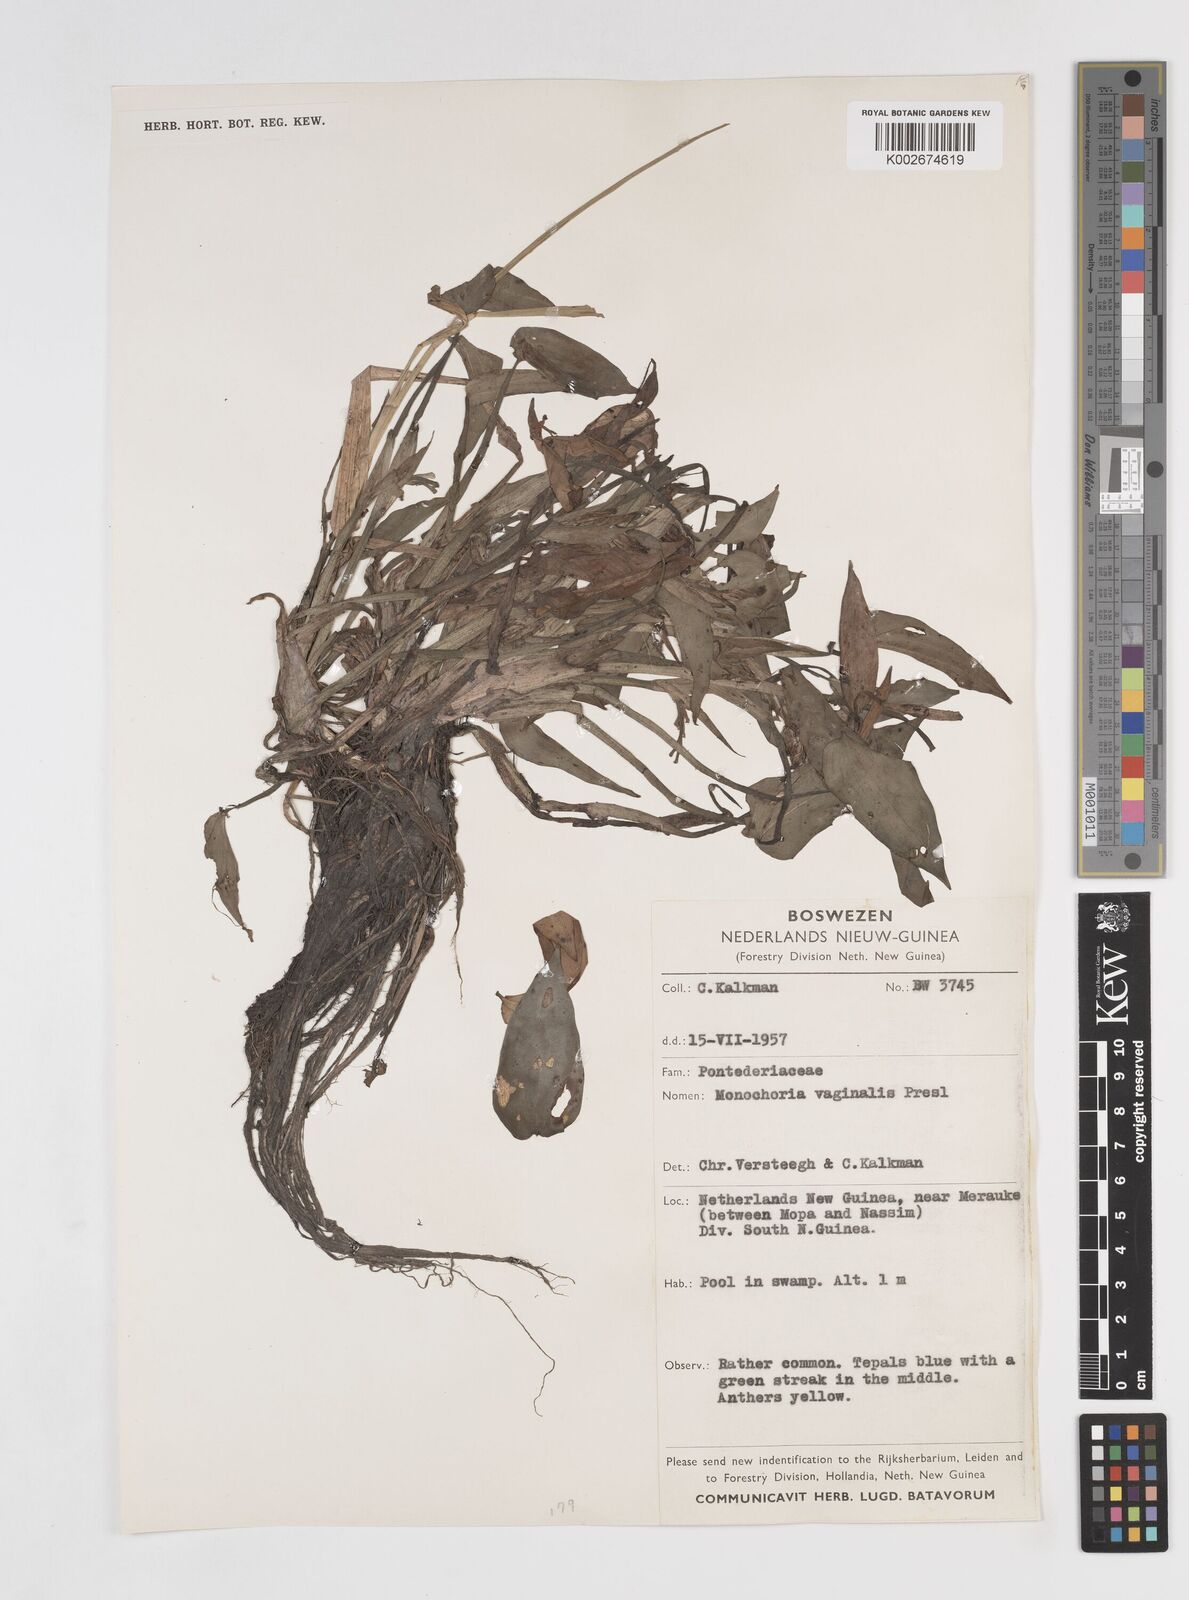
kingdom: Plantae
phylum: Tracheophyta
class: Liliopsida
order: Commelinales
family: Pontederiaceae
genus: Pontederia
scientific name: Pontederia vaginalis
